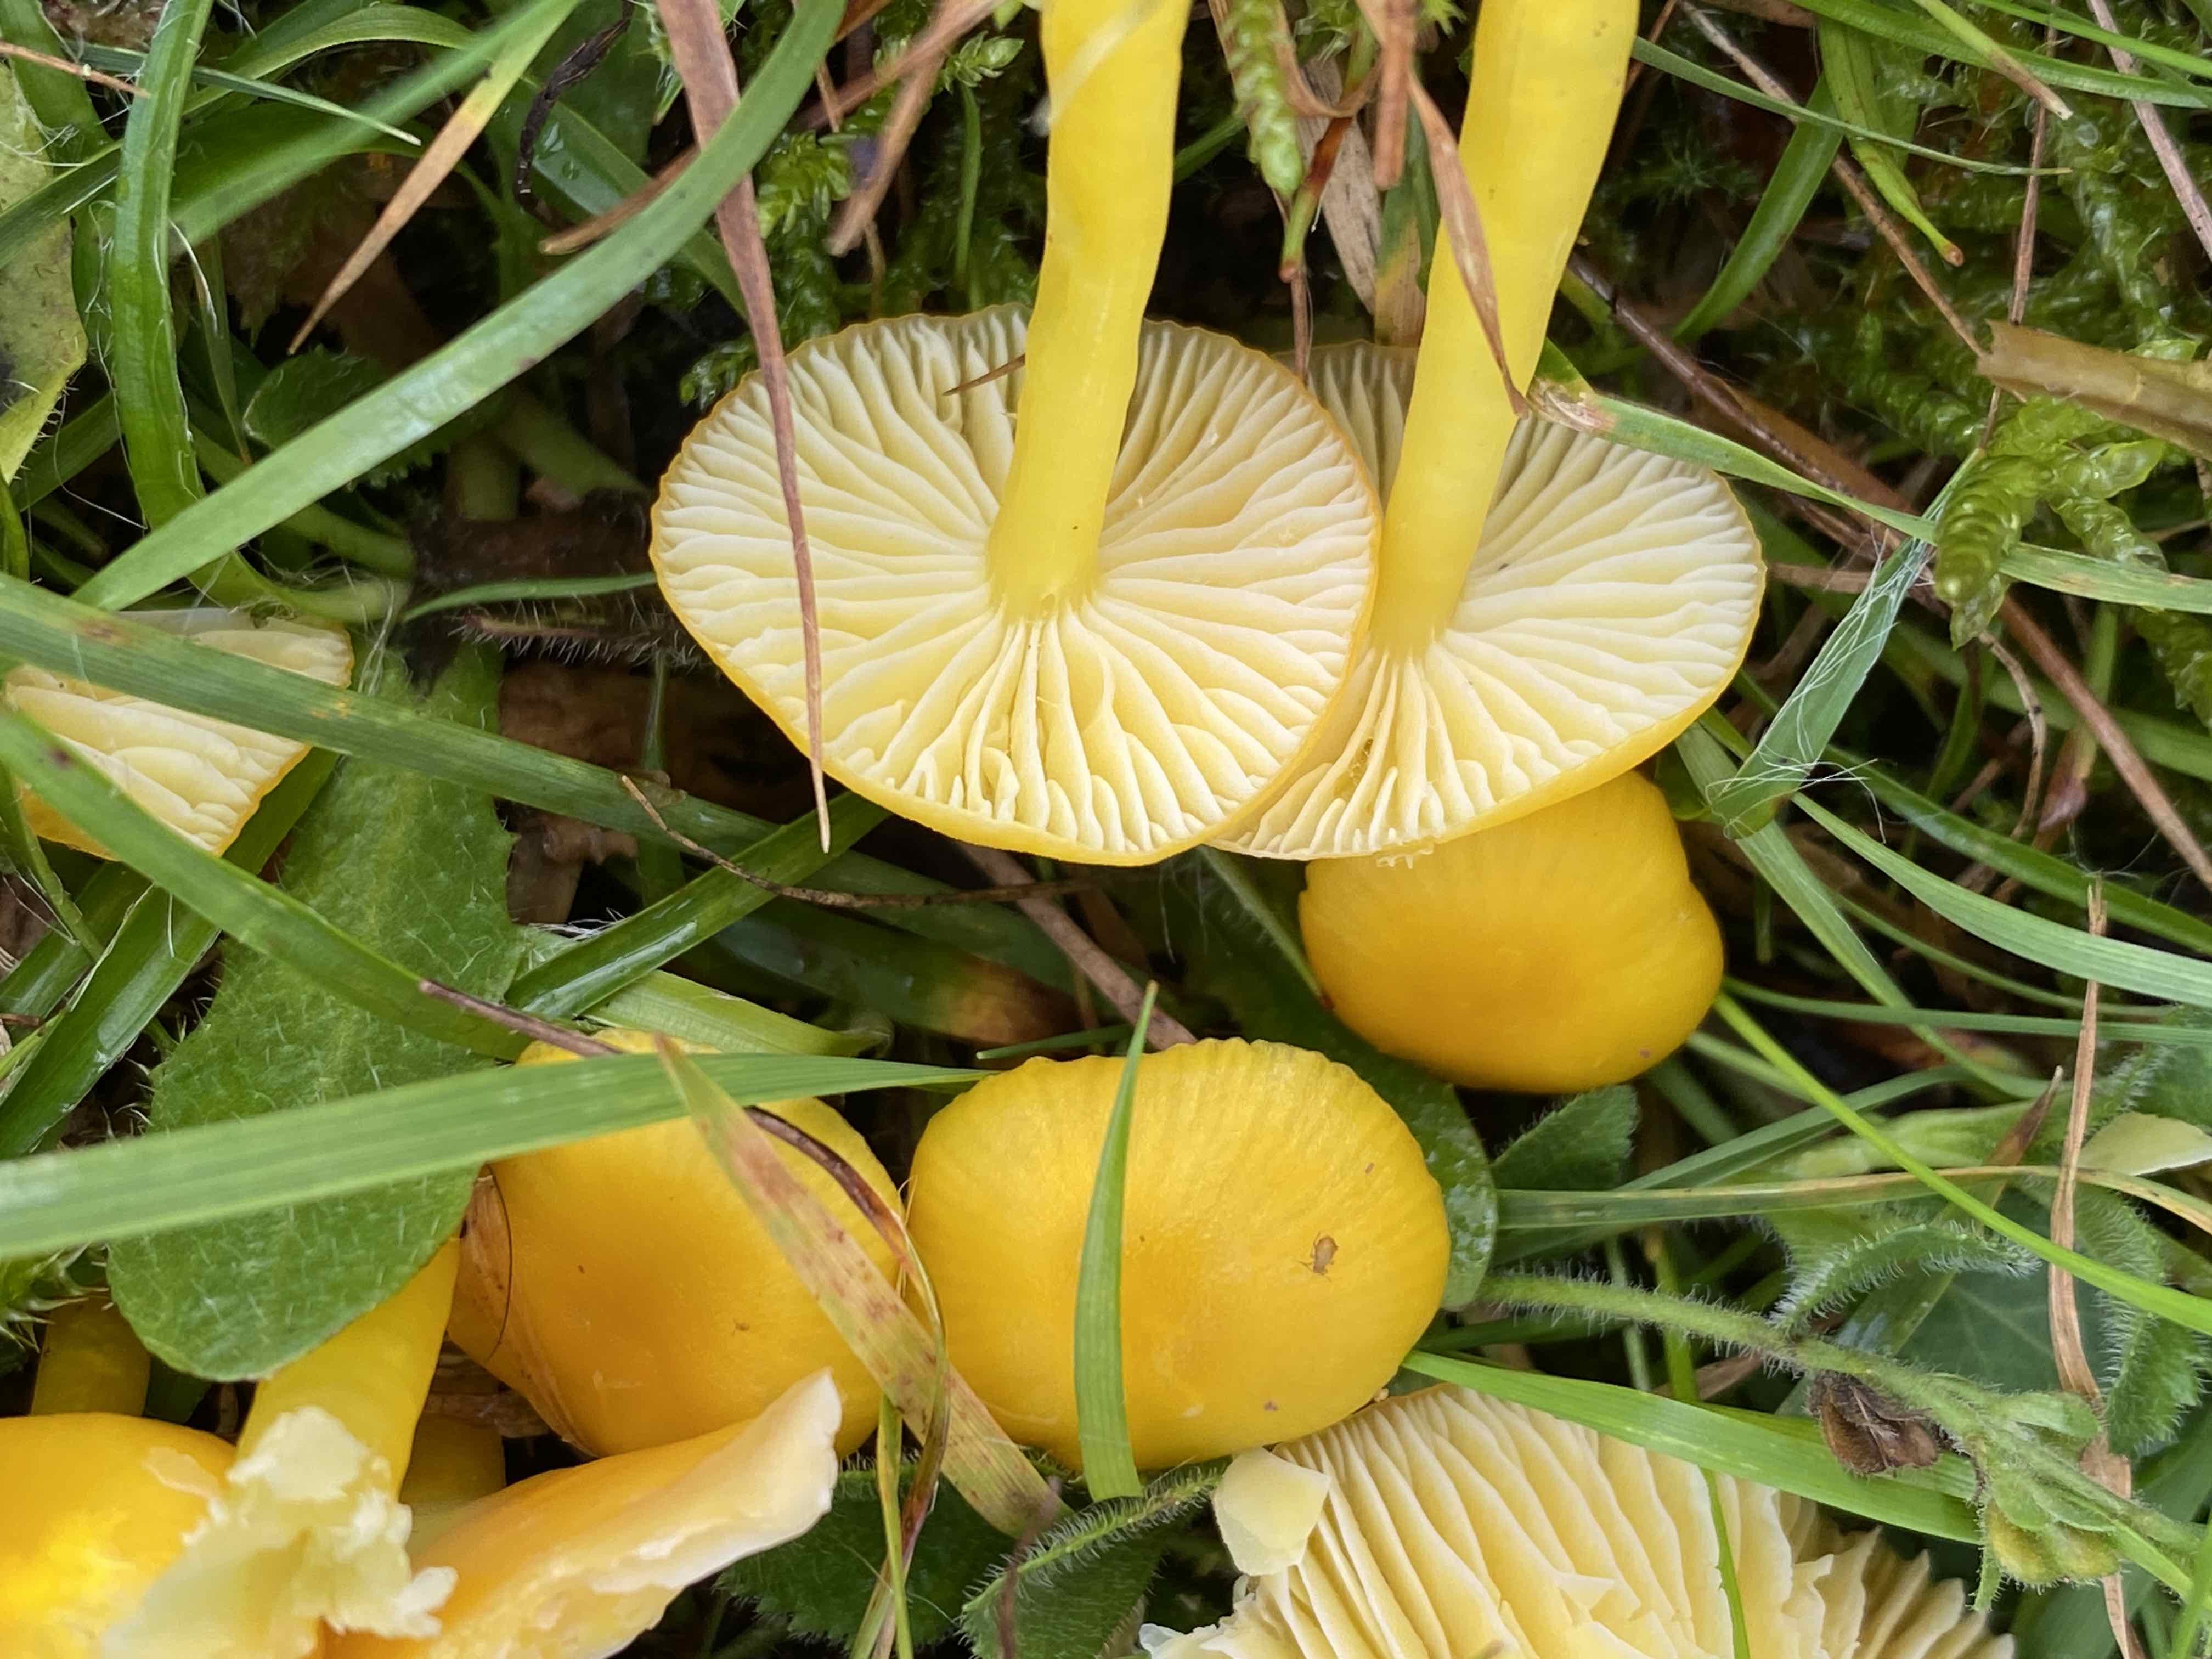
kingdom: Fungi
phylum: Basidiomycota
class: Agaricomycetes
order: Agaricales
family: Hygrophoraceae
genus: Hygrocybe
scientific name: Hygrocybe ceracea
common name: voksgul vokshat
